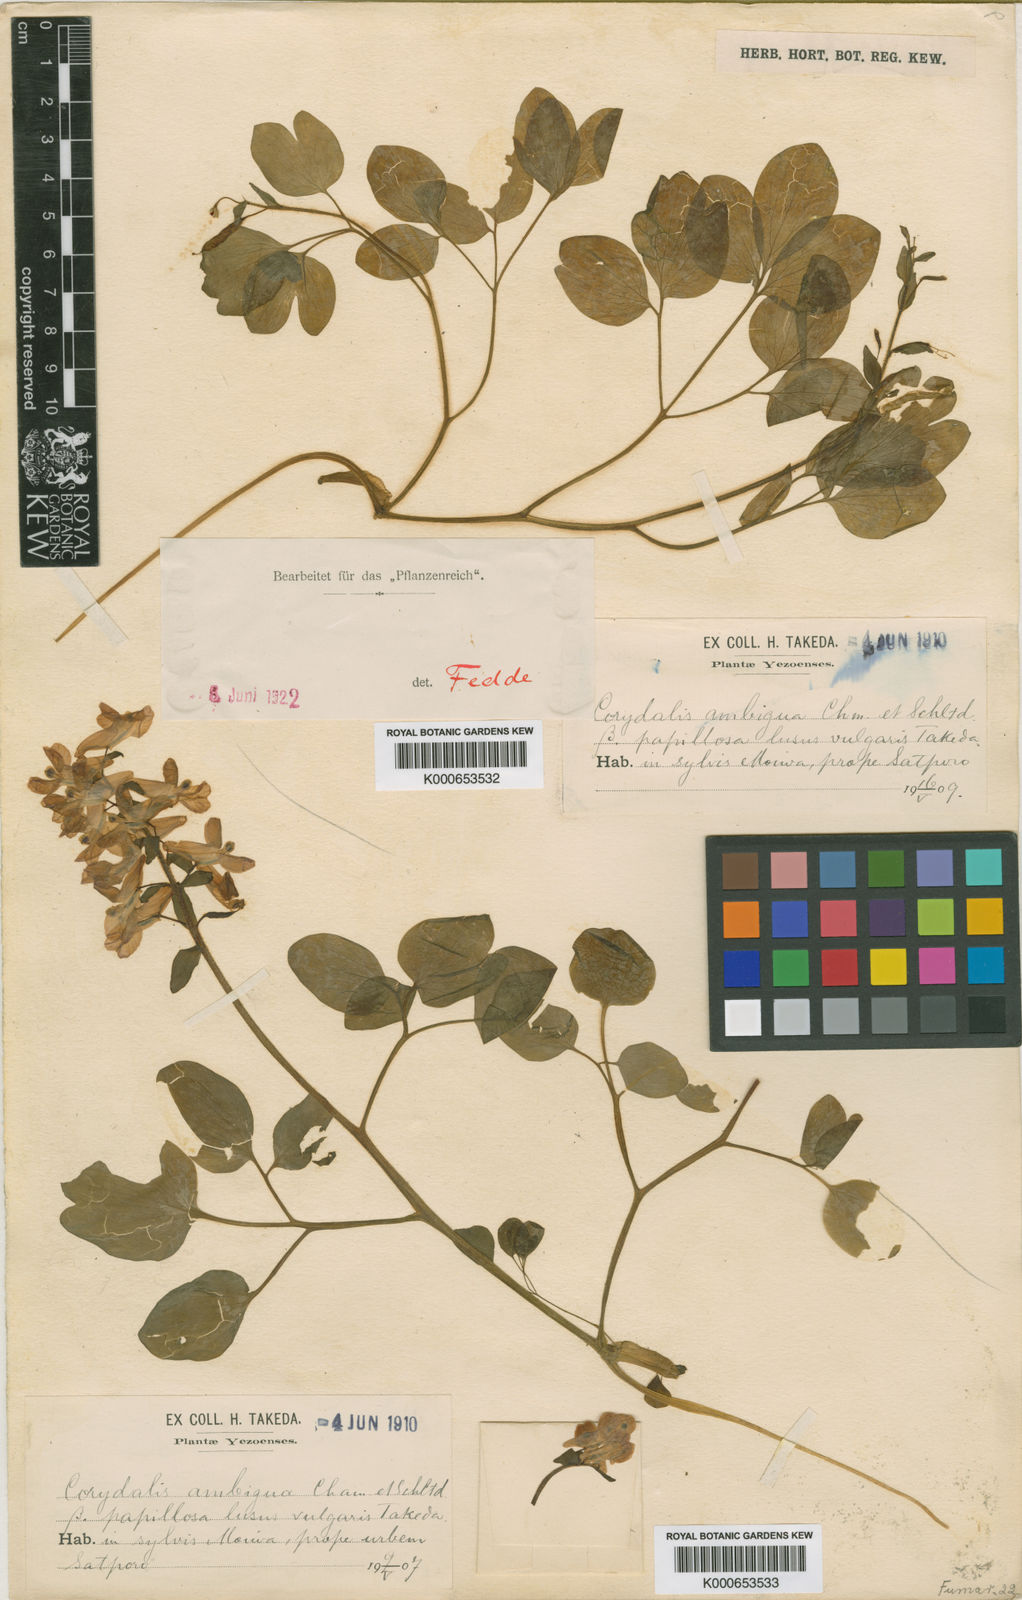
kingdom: Plantae
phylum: Tracheophyta
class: Magnoliopsida
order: Ranunculales
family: Papaveraceae
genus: Corydalis
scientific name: Corydalis ambigua
